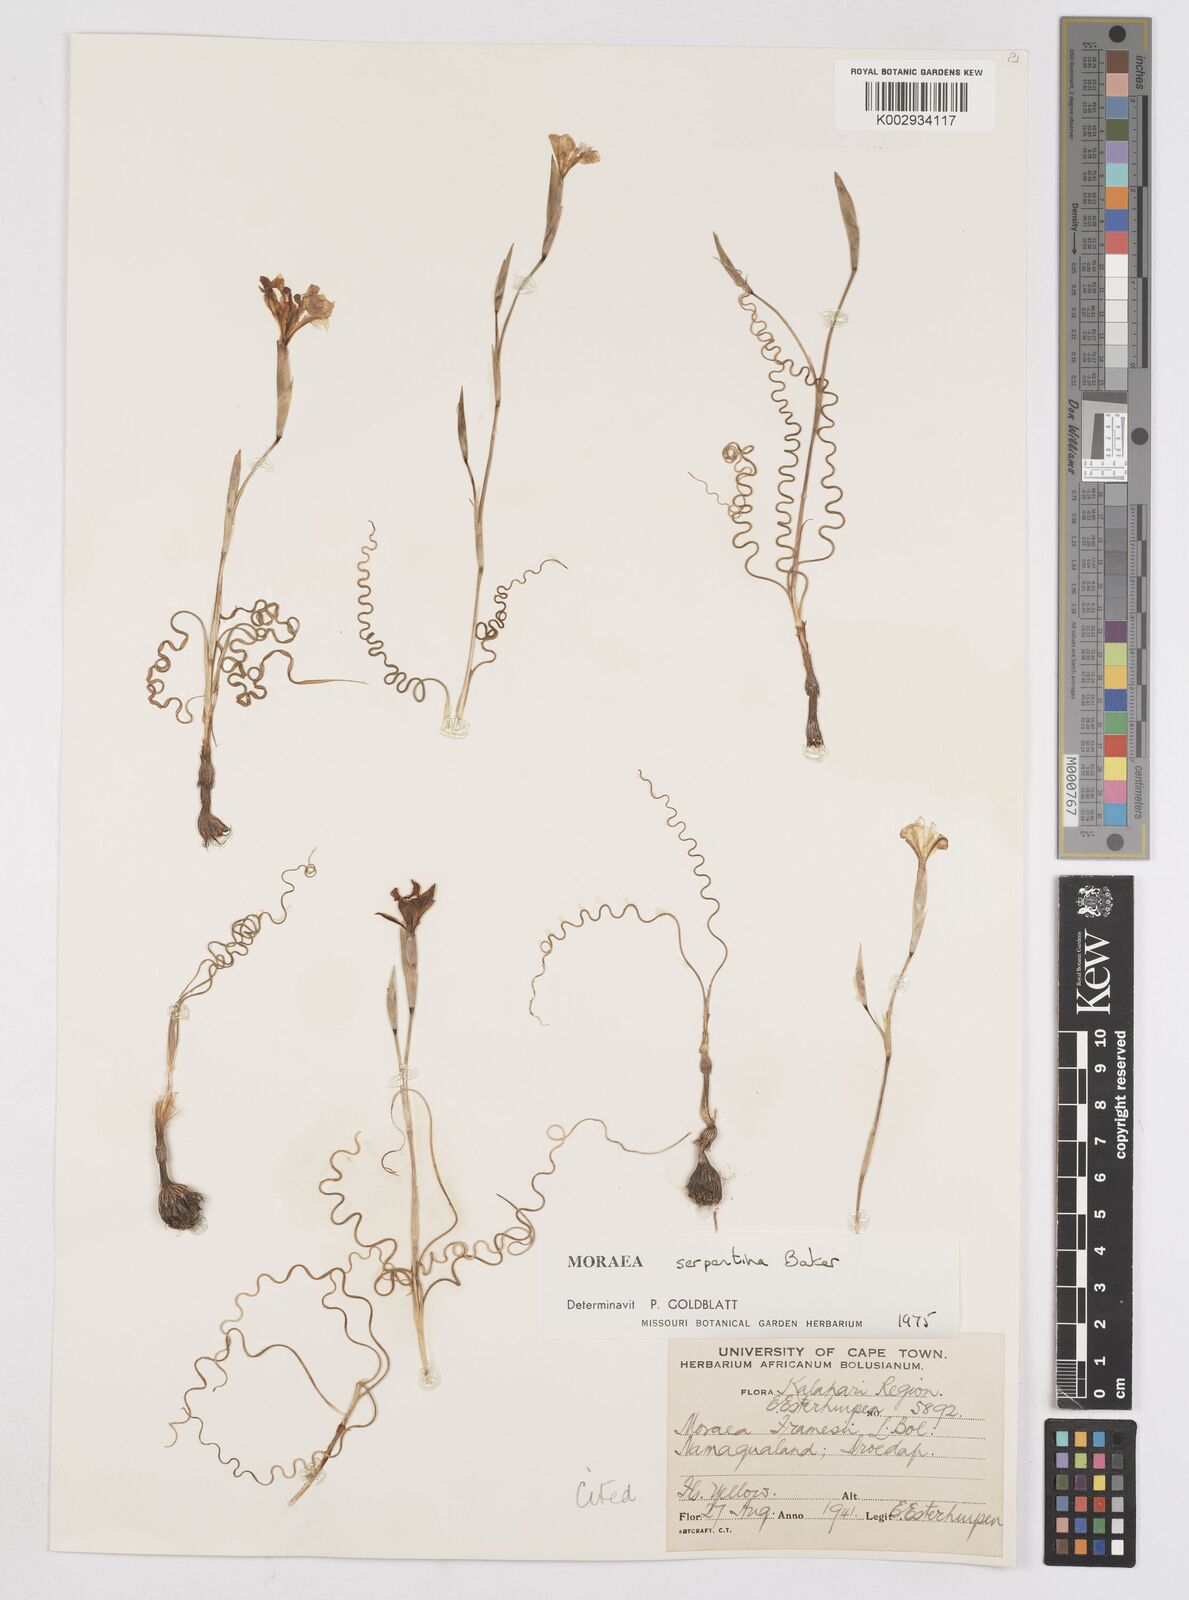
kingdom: Plantae
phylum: Tracheophyta
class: Liliopsida
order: Asparagales
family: Iridaceae
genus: Moraea
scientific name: Moraea serpentina
